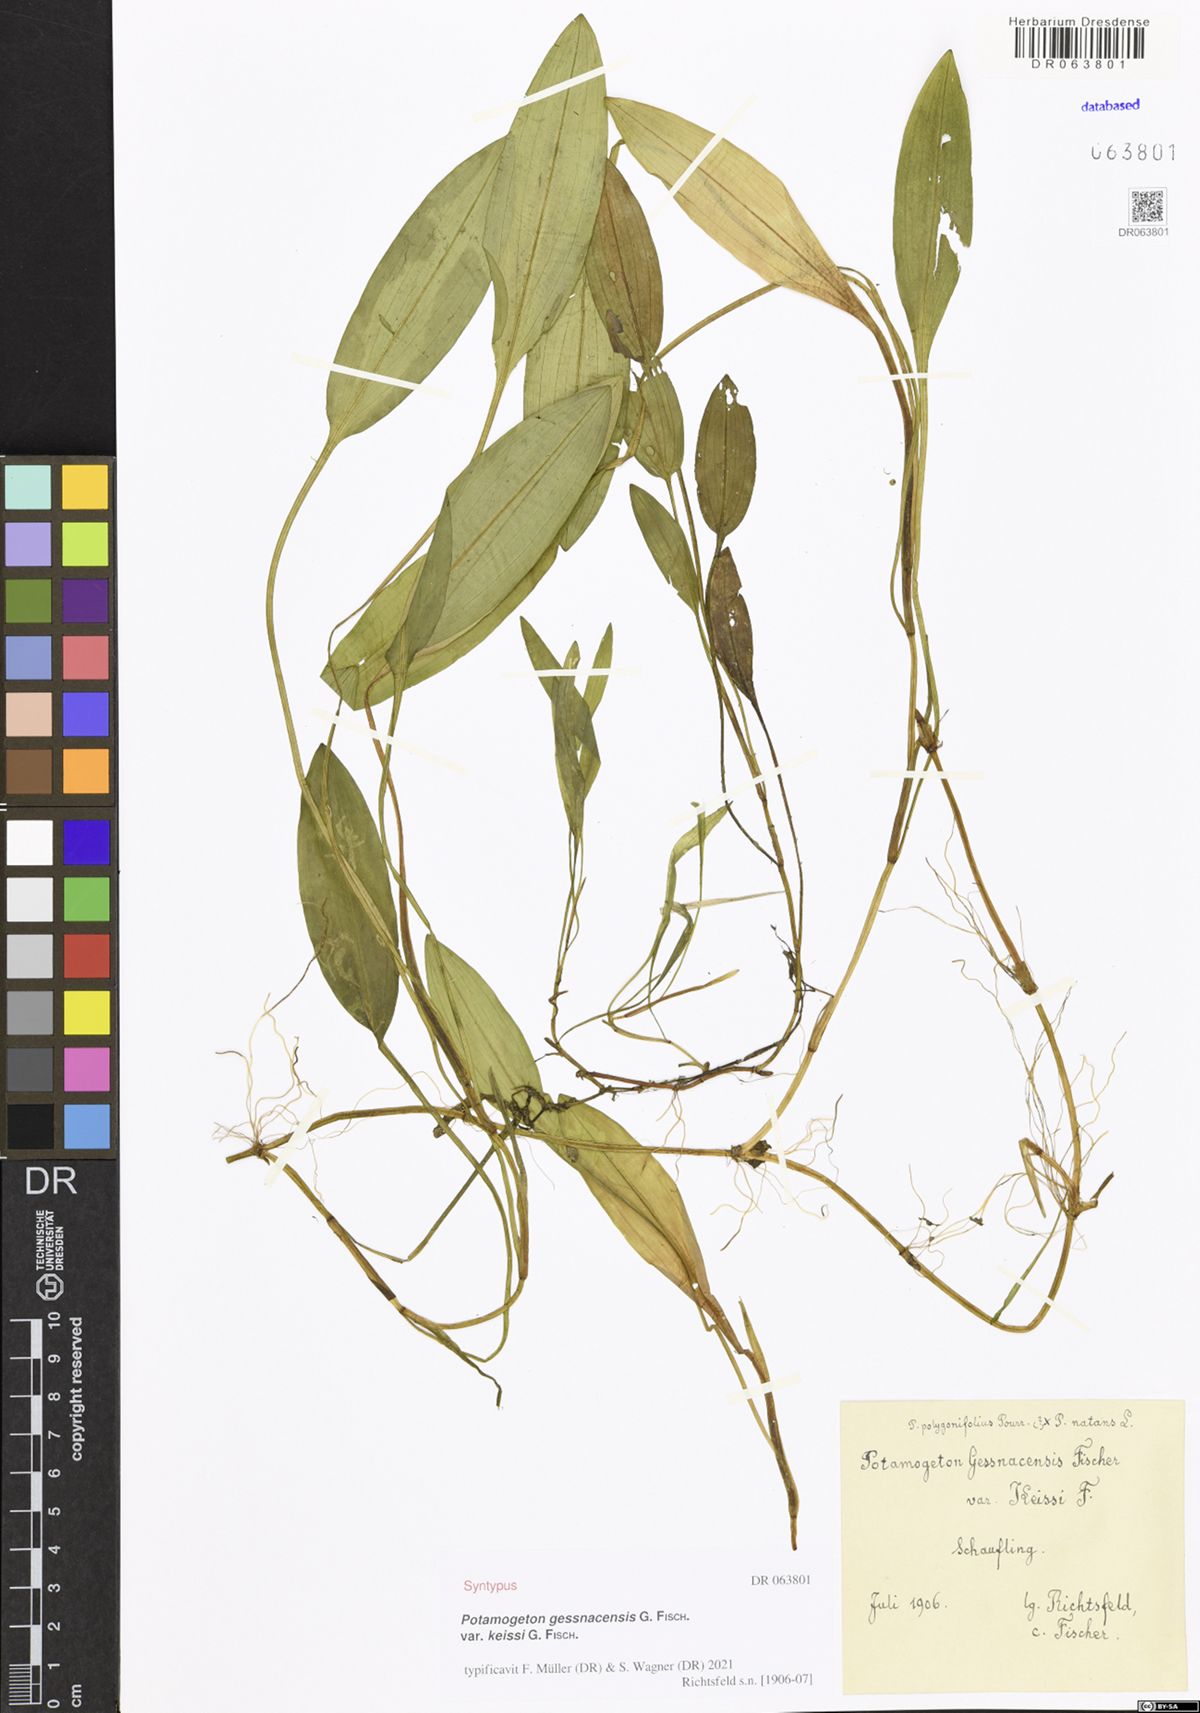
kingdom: Plantae
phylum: Tracheophyta
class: Liliopsida
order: Alismatales
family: Potamogetonaceae
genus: Potamogeton
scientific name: Potamogeton gessnacensis
